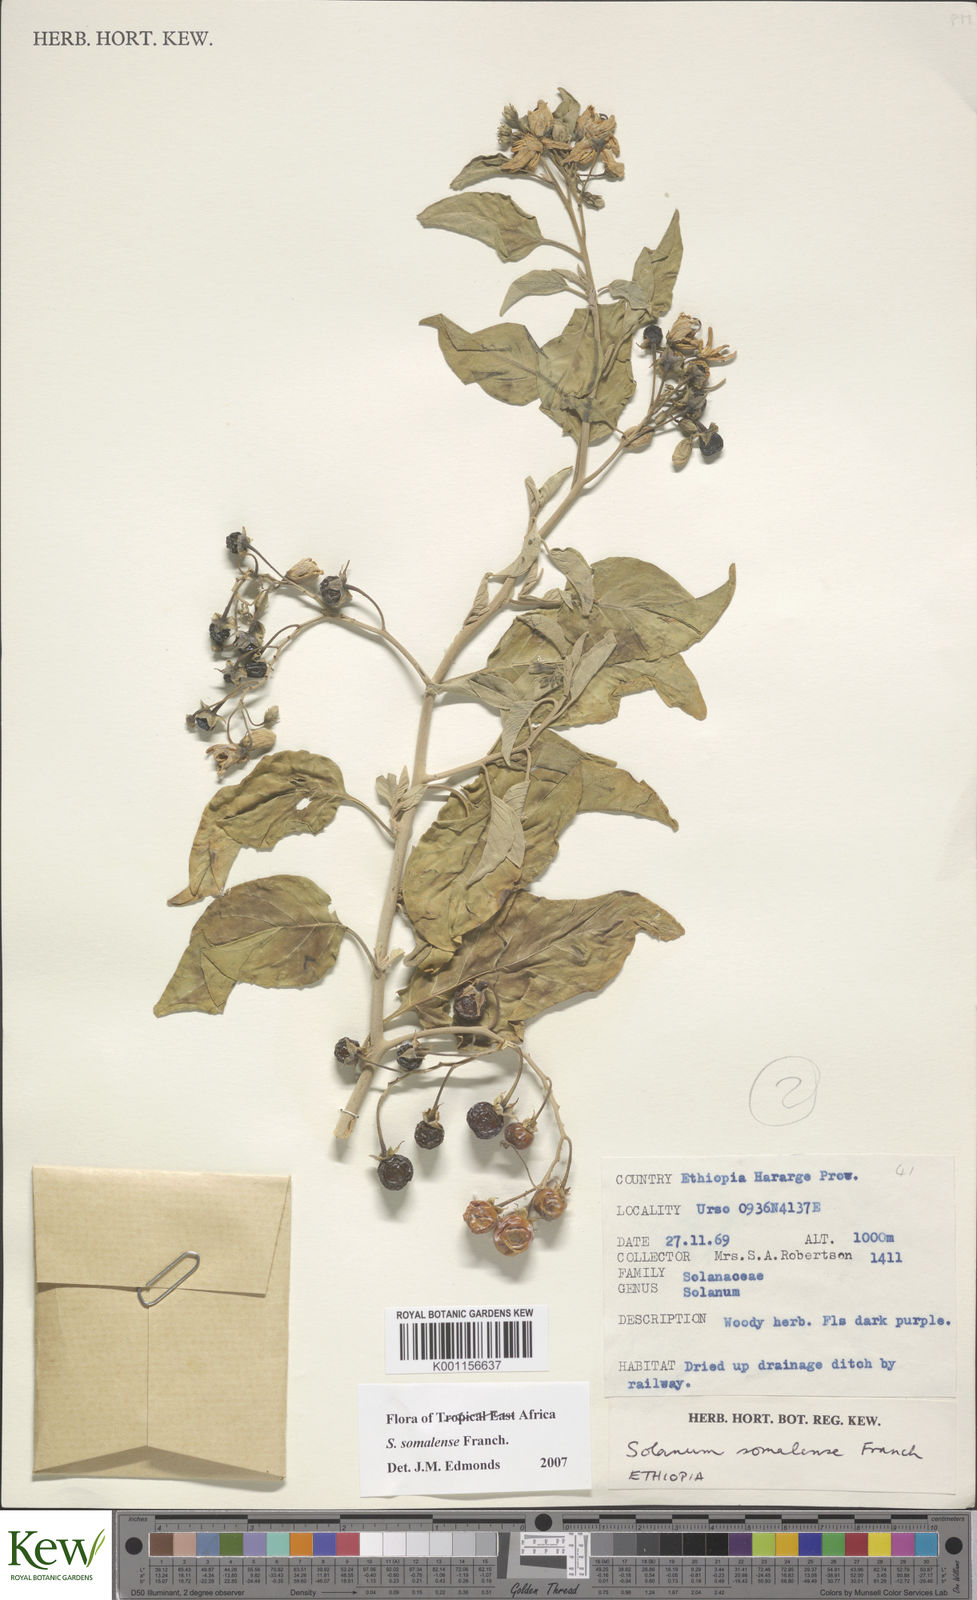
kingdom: Plantae
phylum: Tracheophyta
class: Magnoliopsida
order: Solanales
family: Solanaceae
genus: Solanum
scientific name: Solanum somalense
